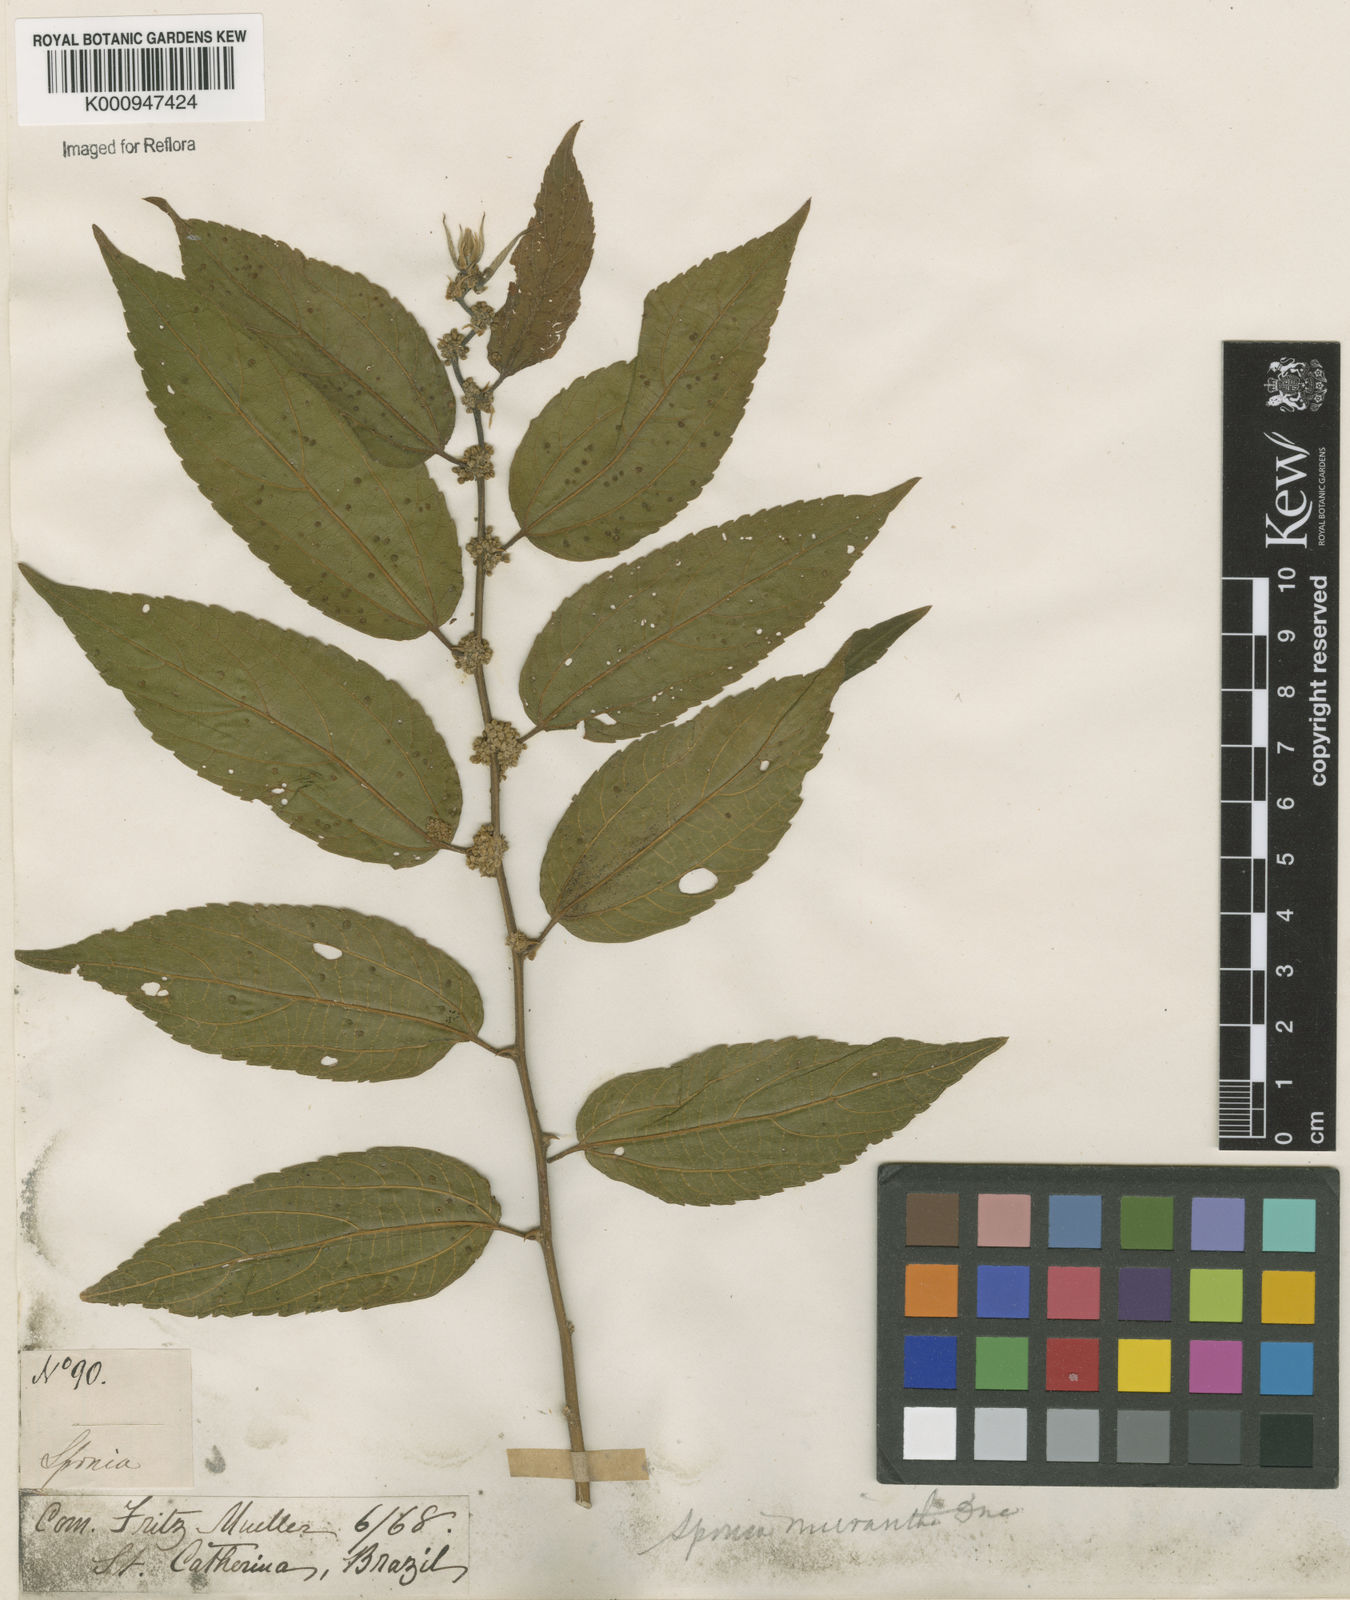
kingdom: Plantae
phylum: Tracheophyta
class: Magnoliopsida
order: Rosales
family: Cannabaceae
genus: Trema
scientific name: Trema micranthum
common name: Jamaican nettletree
